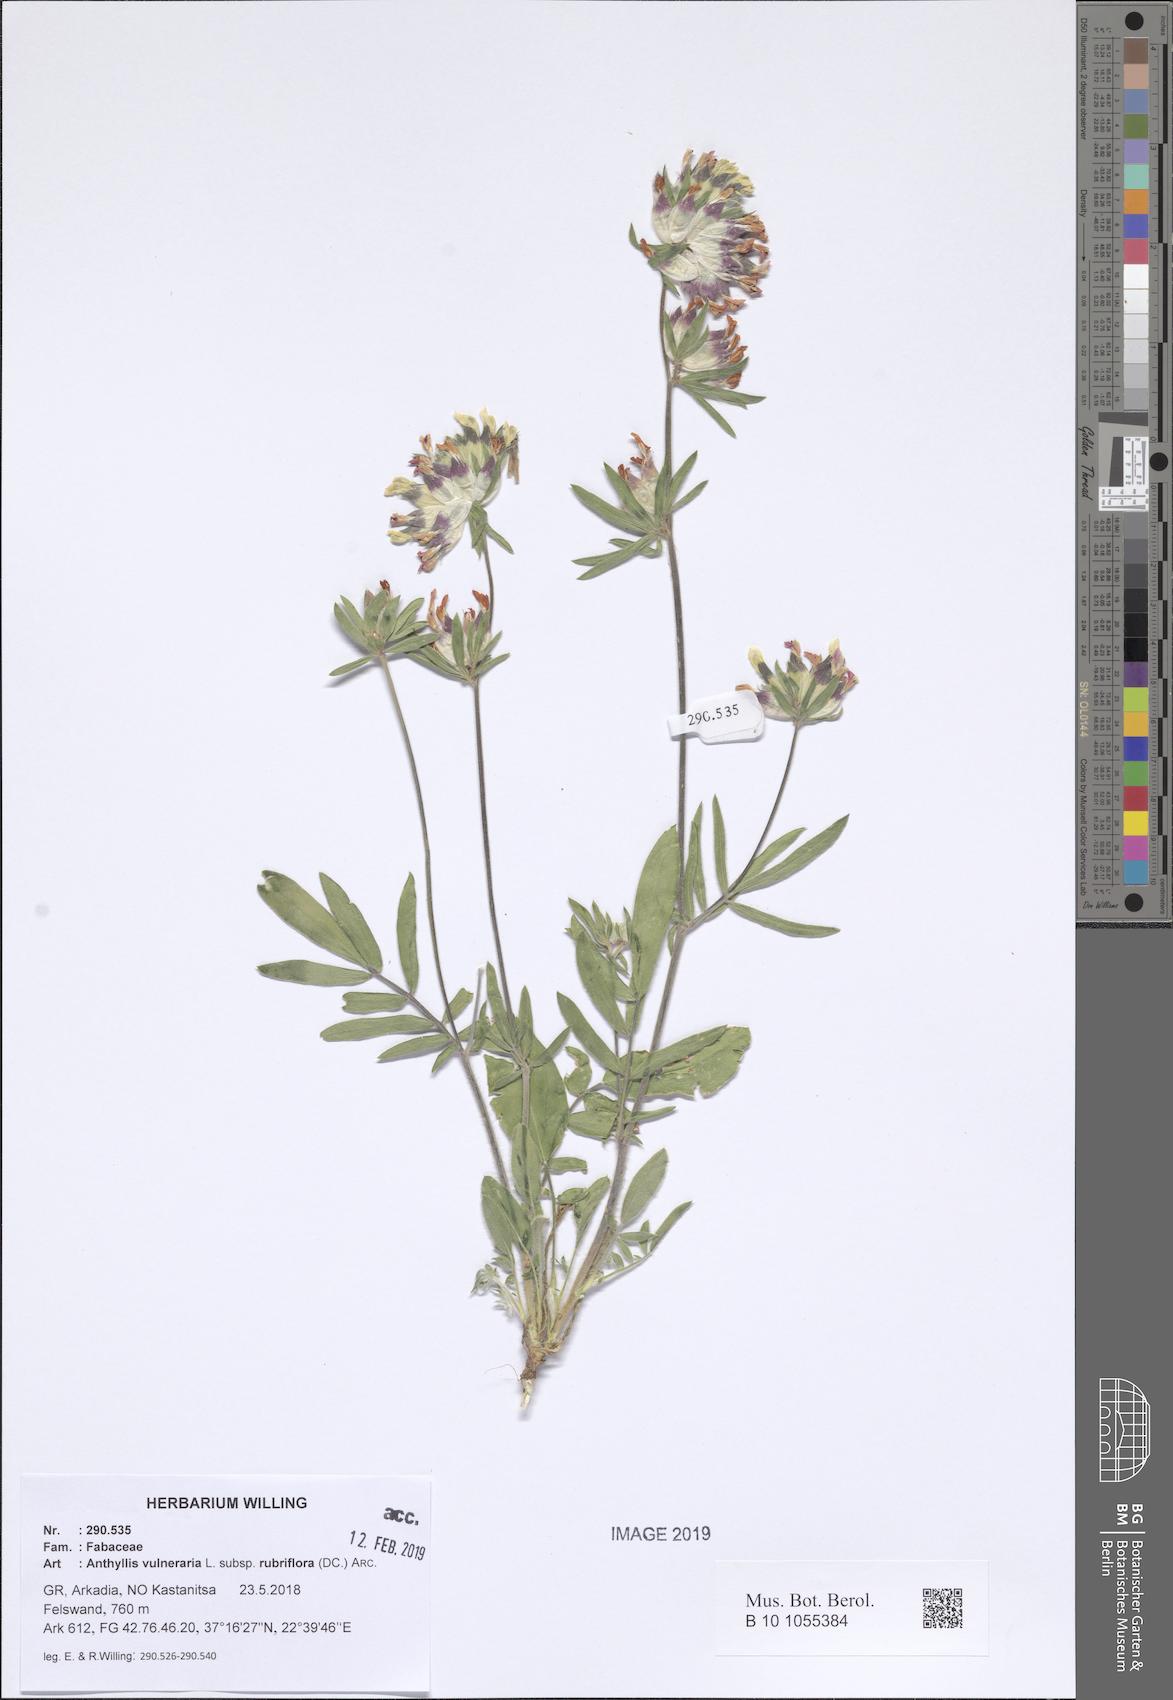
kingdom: Plantae
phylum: Tracheophyta
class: Magnoliopsida
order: Fabales
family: Fabaceae
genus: Anthyllis
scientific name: Anthyllis vulneraria
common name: Kidney vetch
